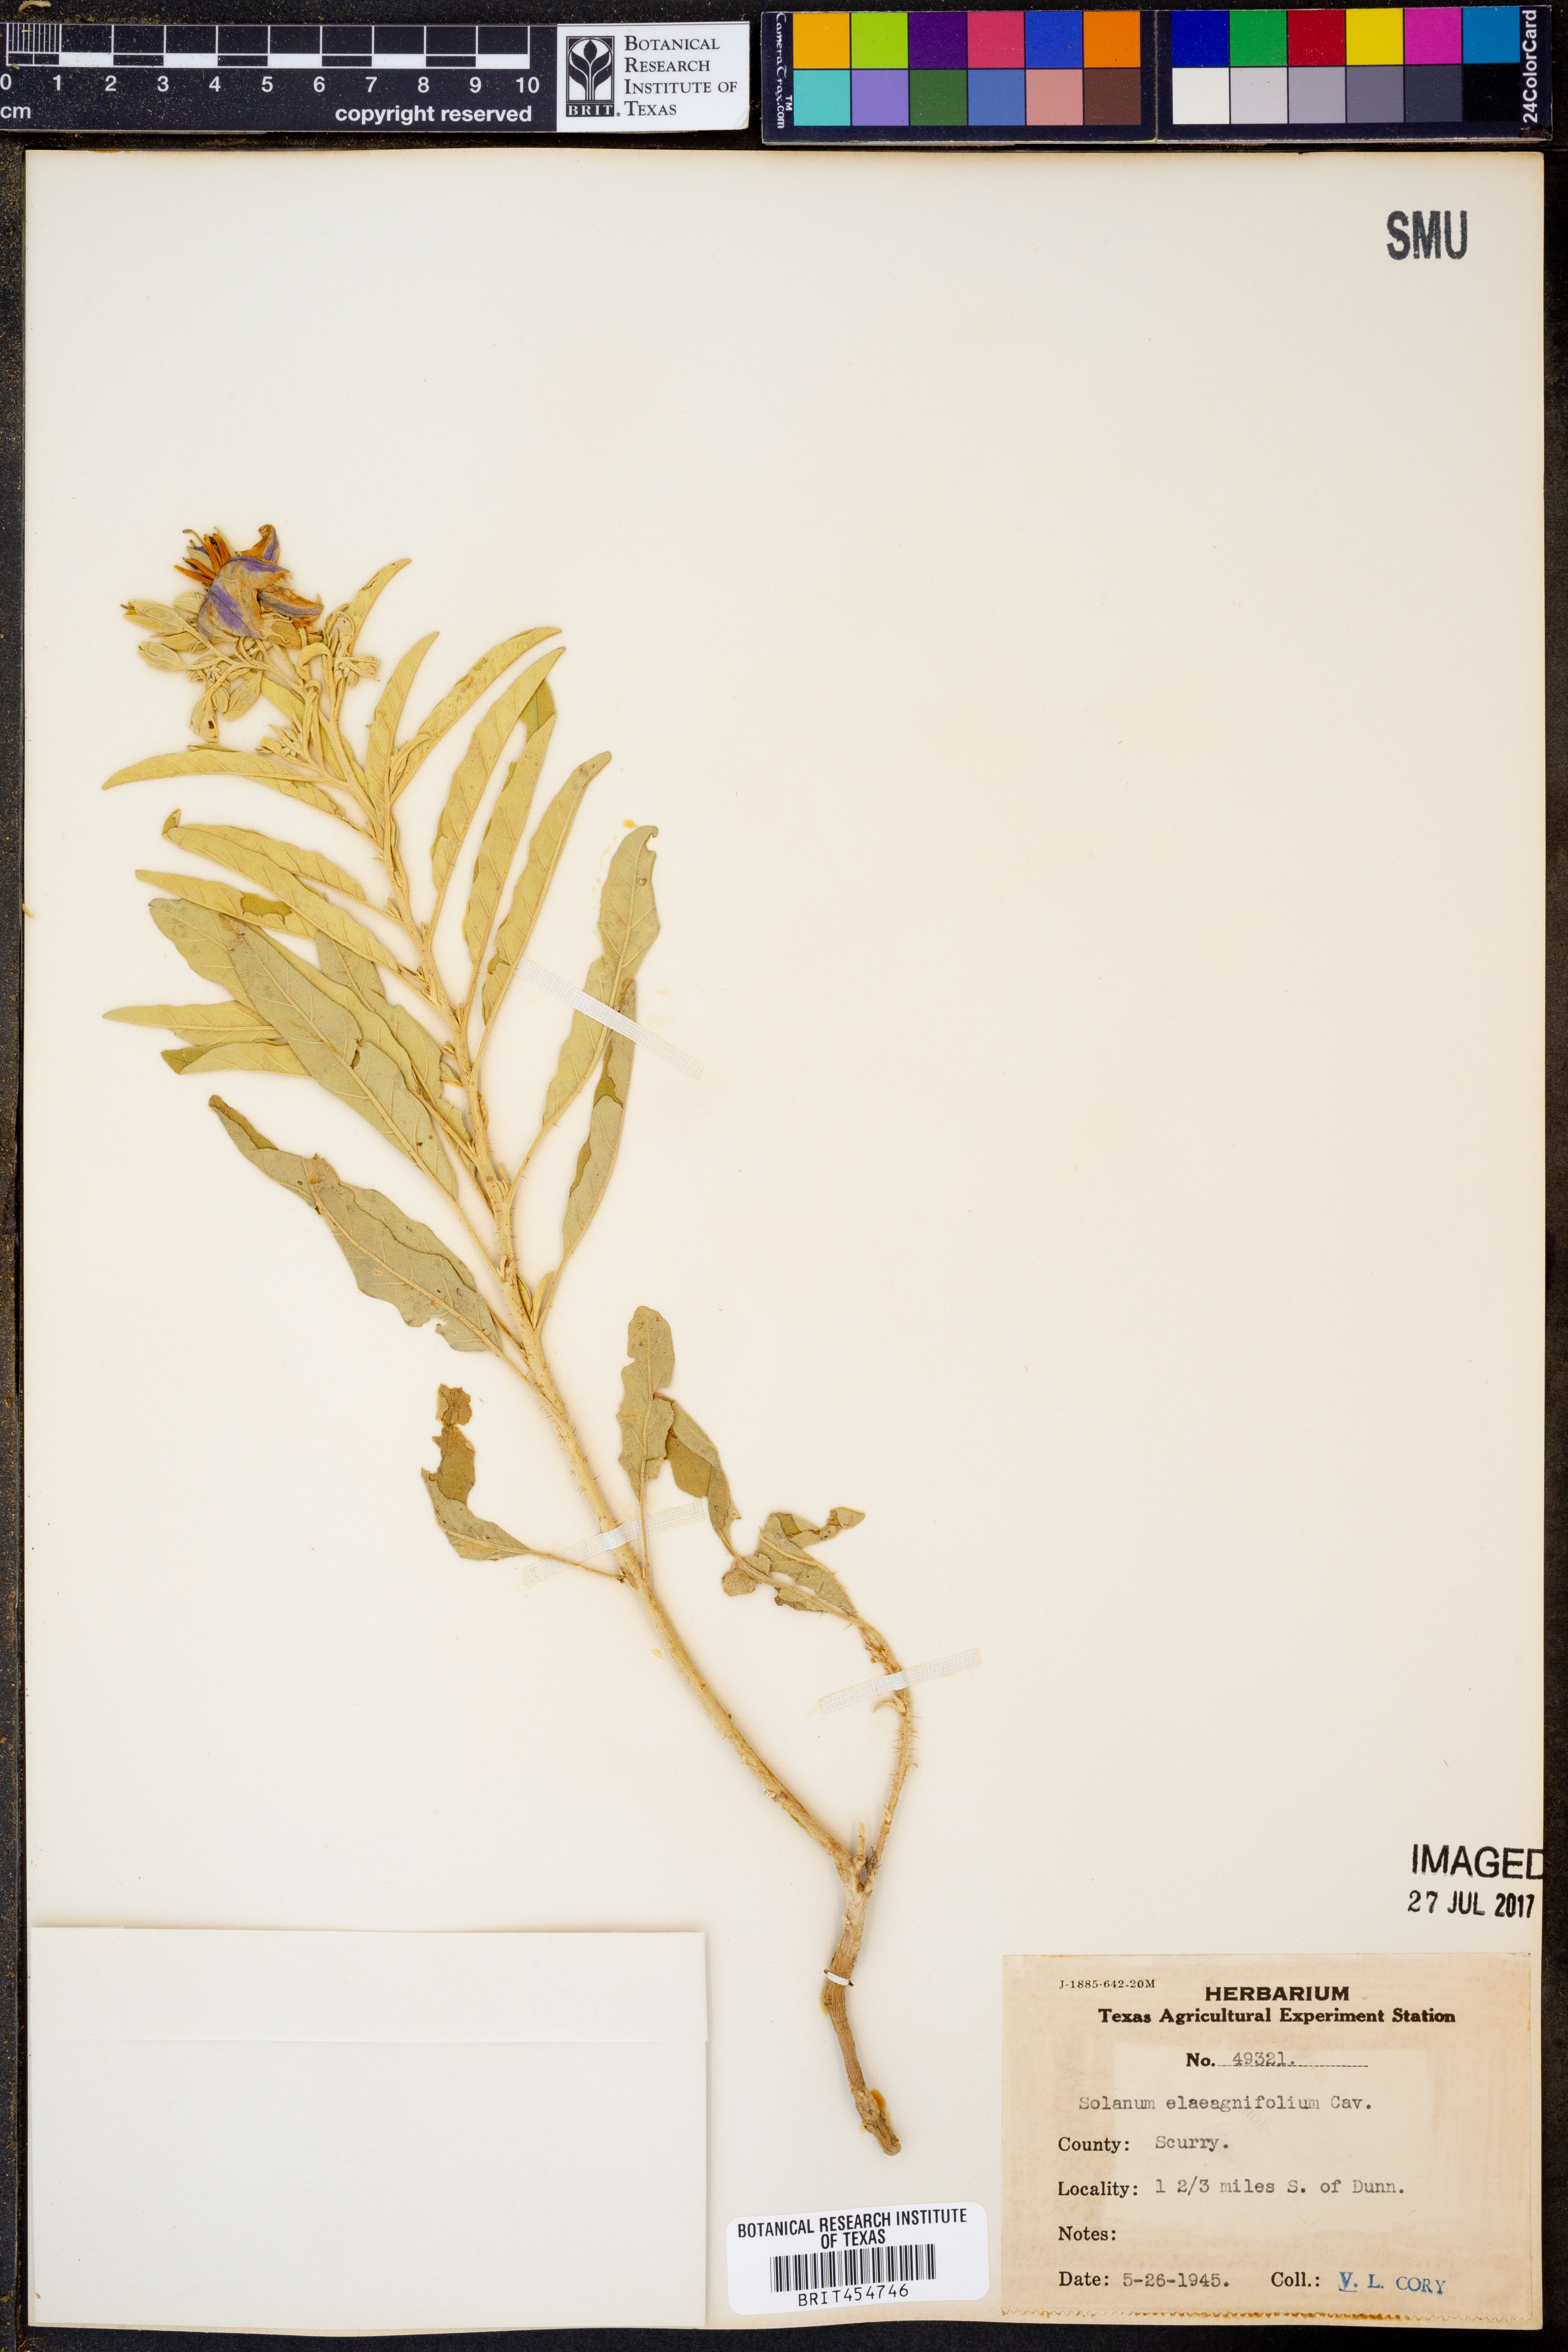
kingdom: Plantae
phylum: Tracheophyta
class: Magnoliopsida
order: Solanales
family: Solanaceae
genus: Solanum
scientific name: Solanum elaeagnifolium
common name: Silverleaf nightshade
